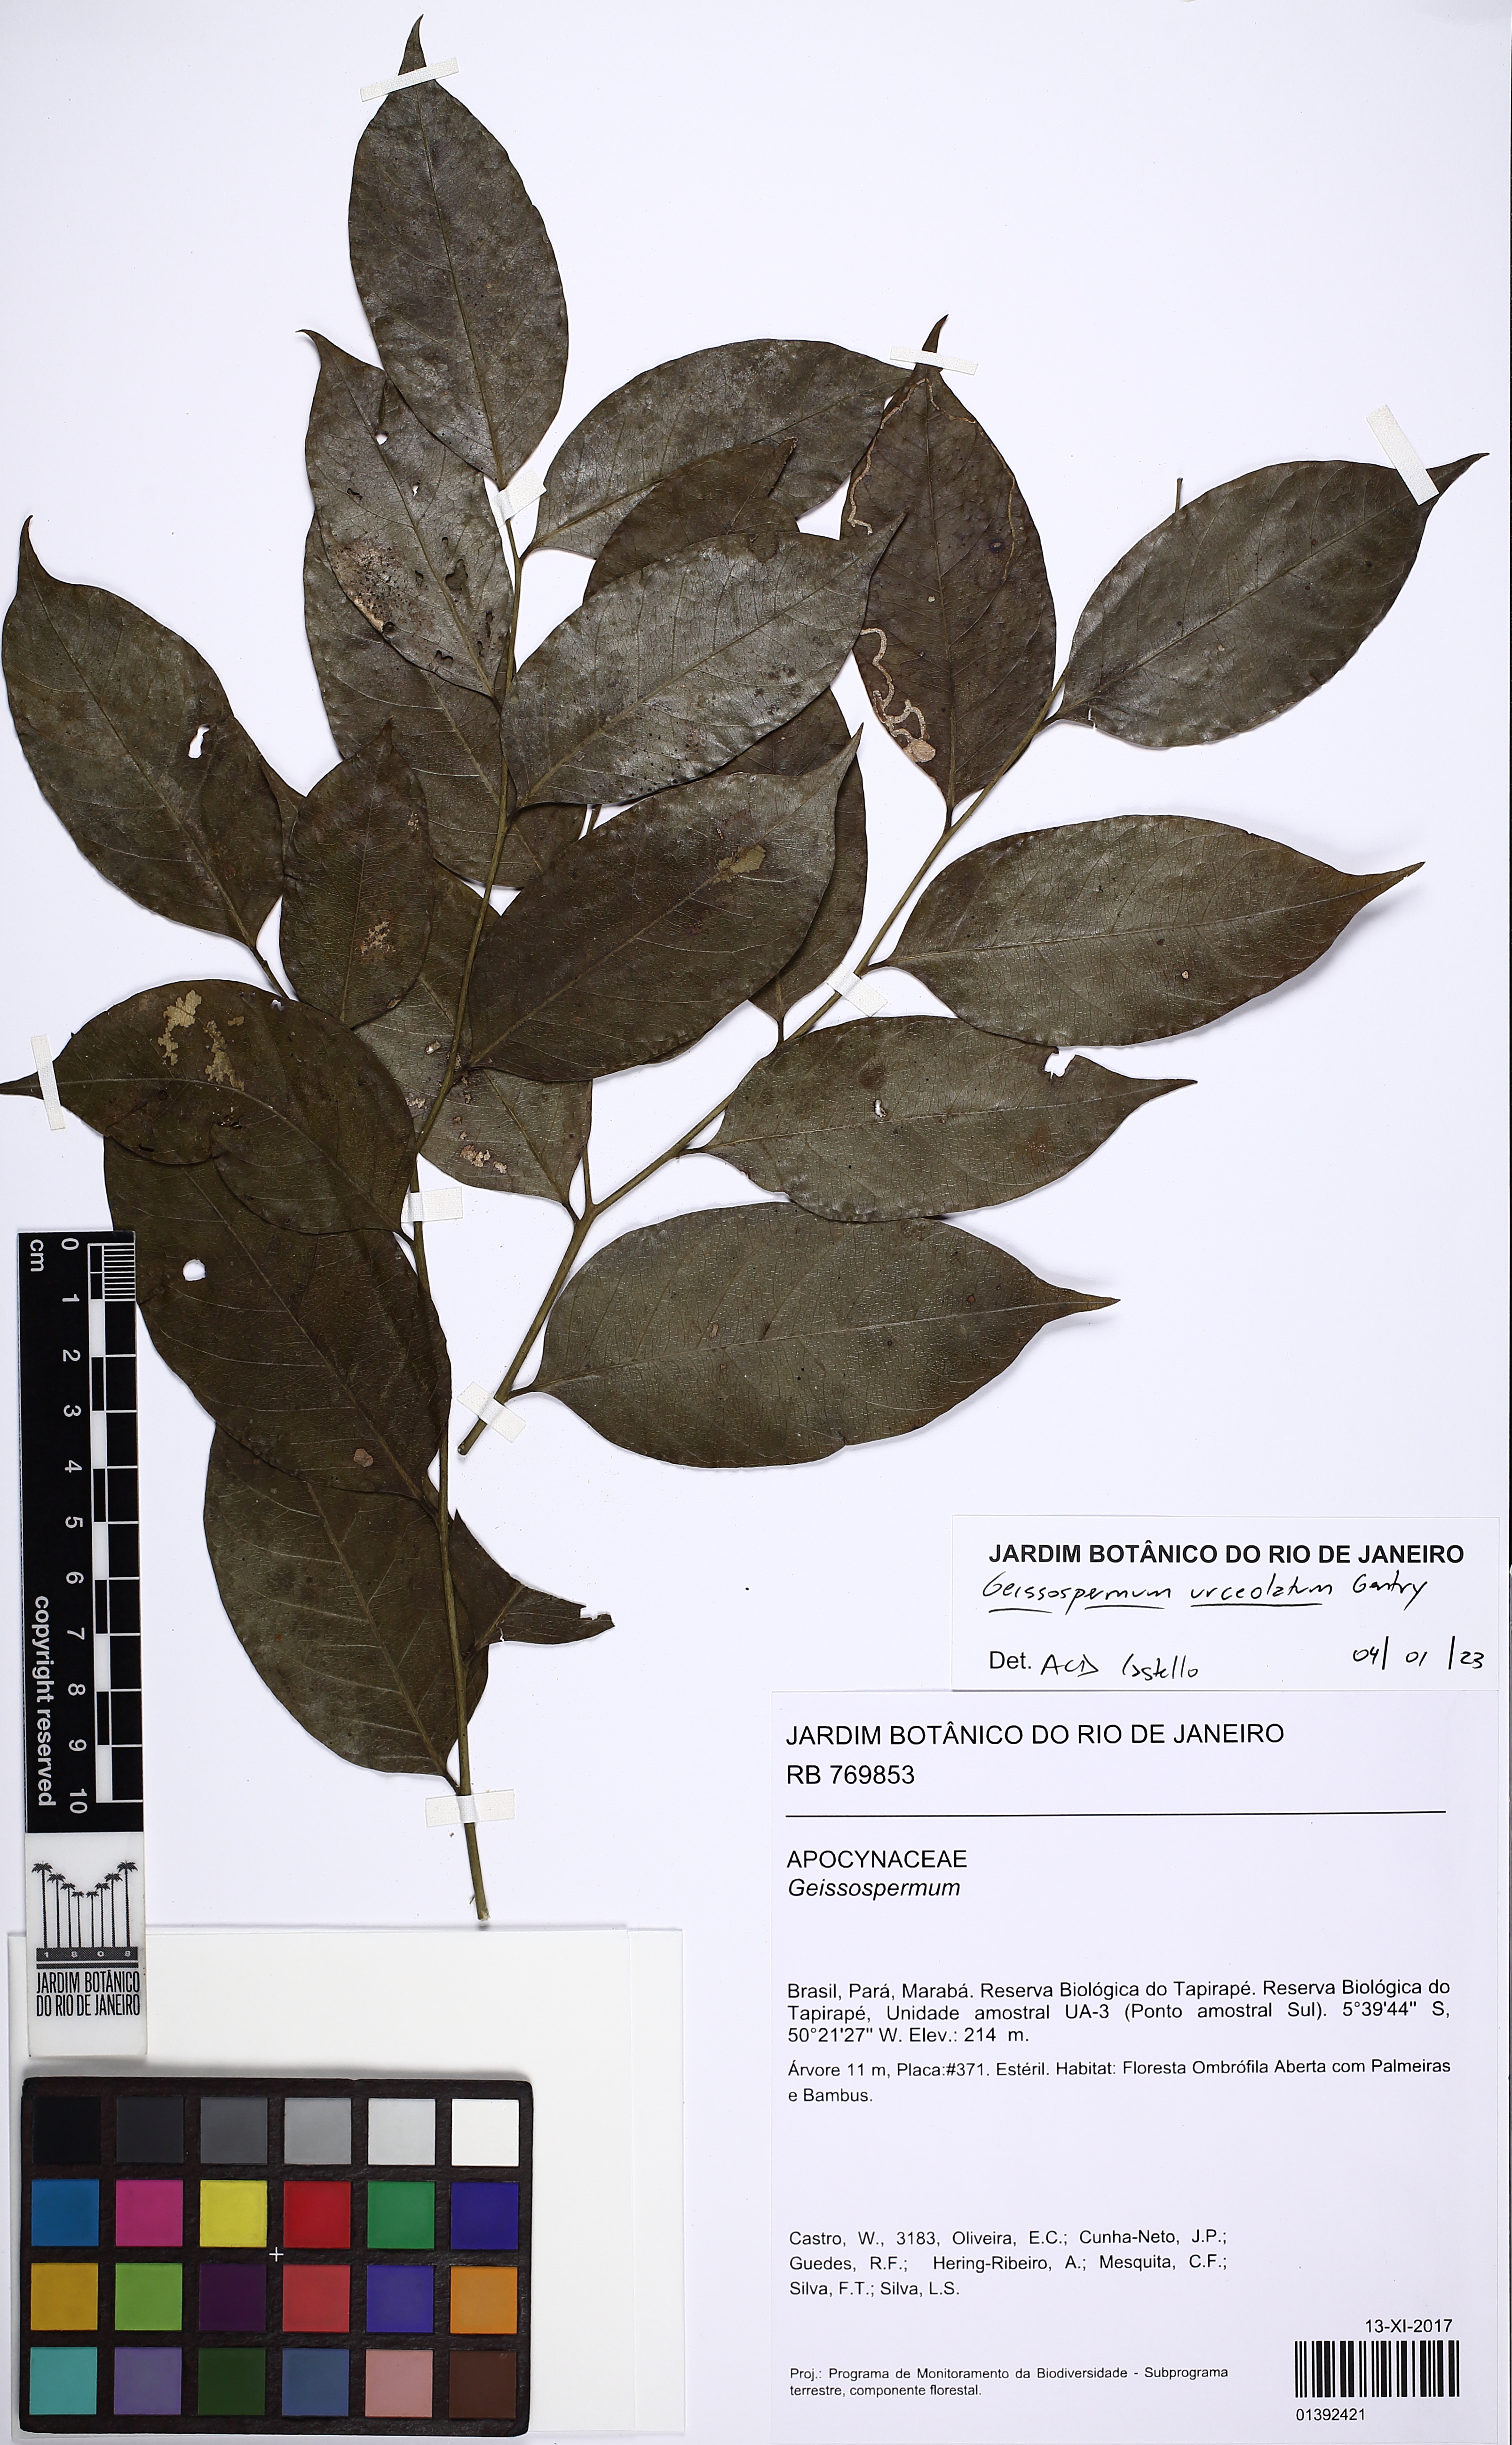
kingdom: Plantae
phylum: Tracheophyta
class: Magnoliopsida
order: Gentianales
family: Apocynaceae
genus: Geissospermum
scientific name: Geissospermum urceolatum
